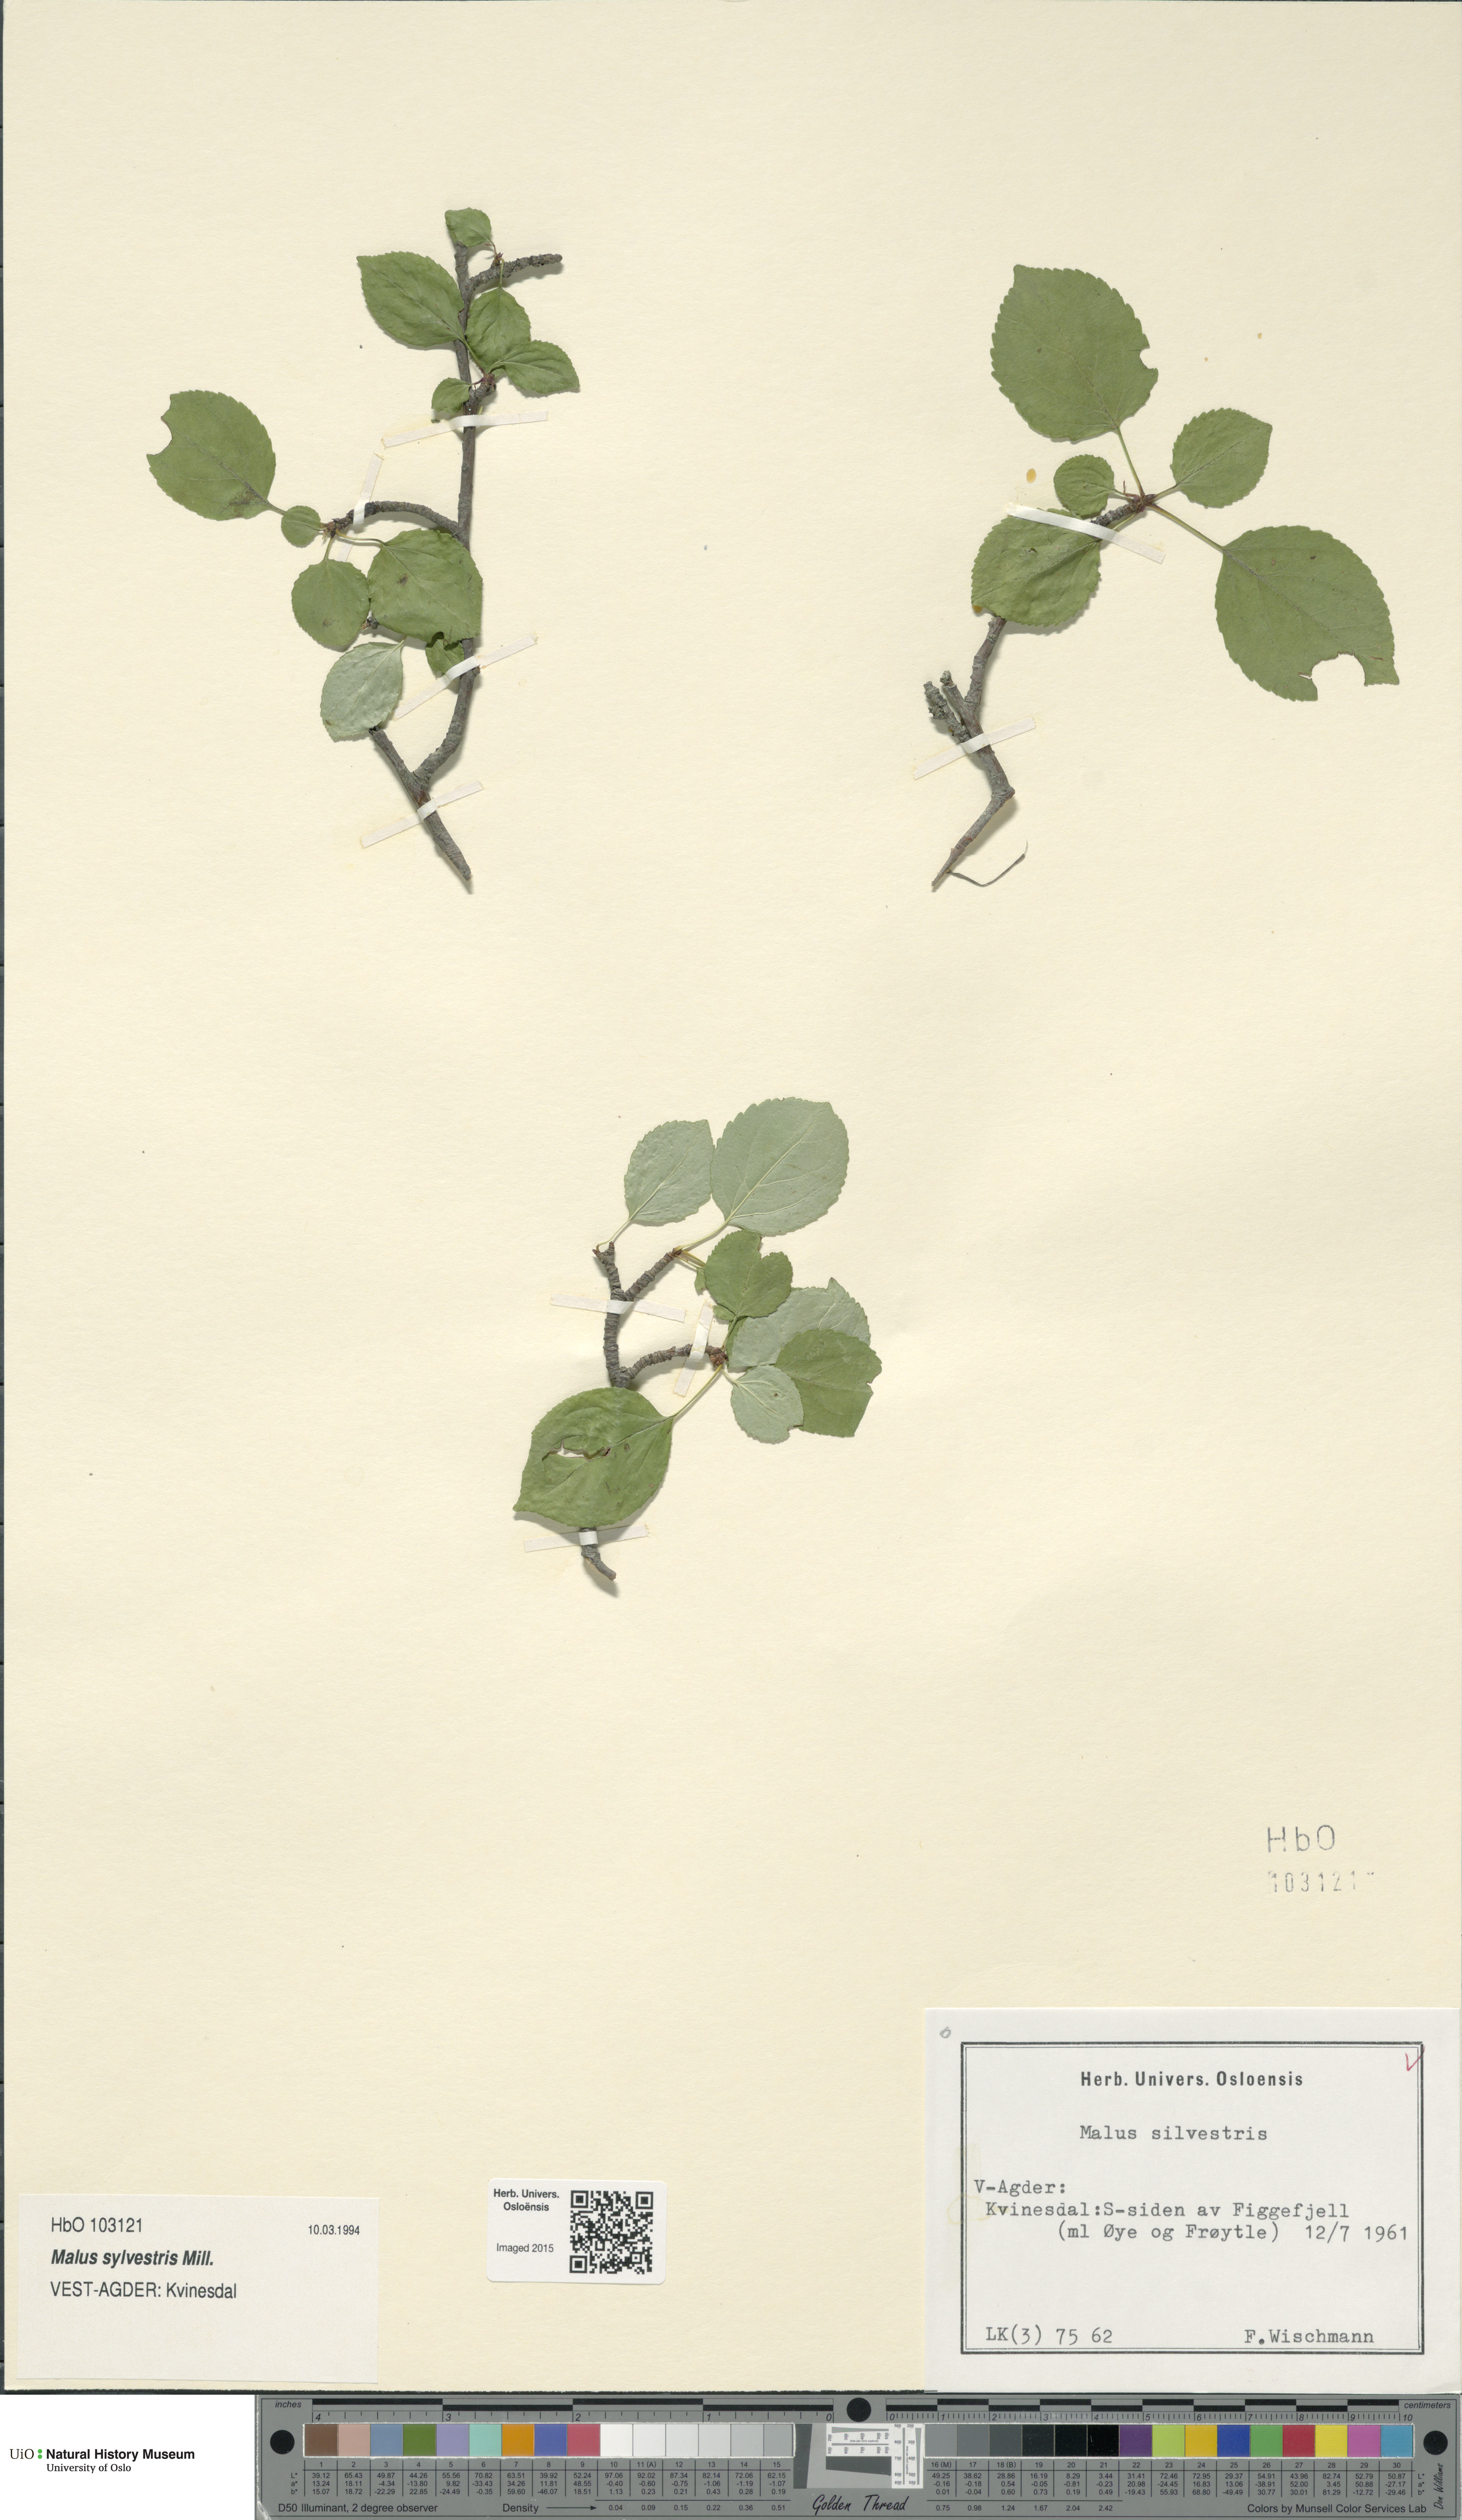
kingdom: Plantae
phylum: Tracheophyta
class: Magnoliopsida
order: Rosales
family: Rosaceae
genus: Malus
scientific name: Malus sylvestris
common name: Crab apple
